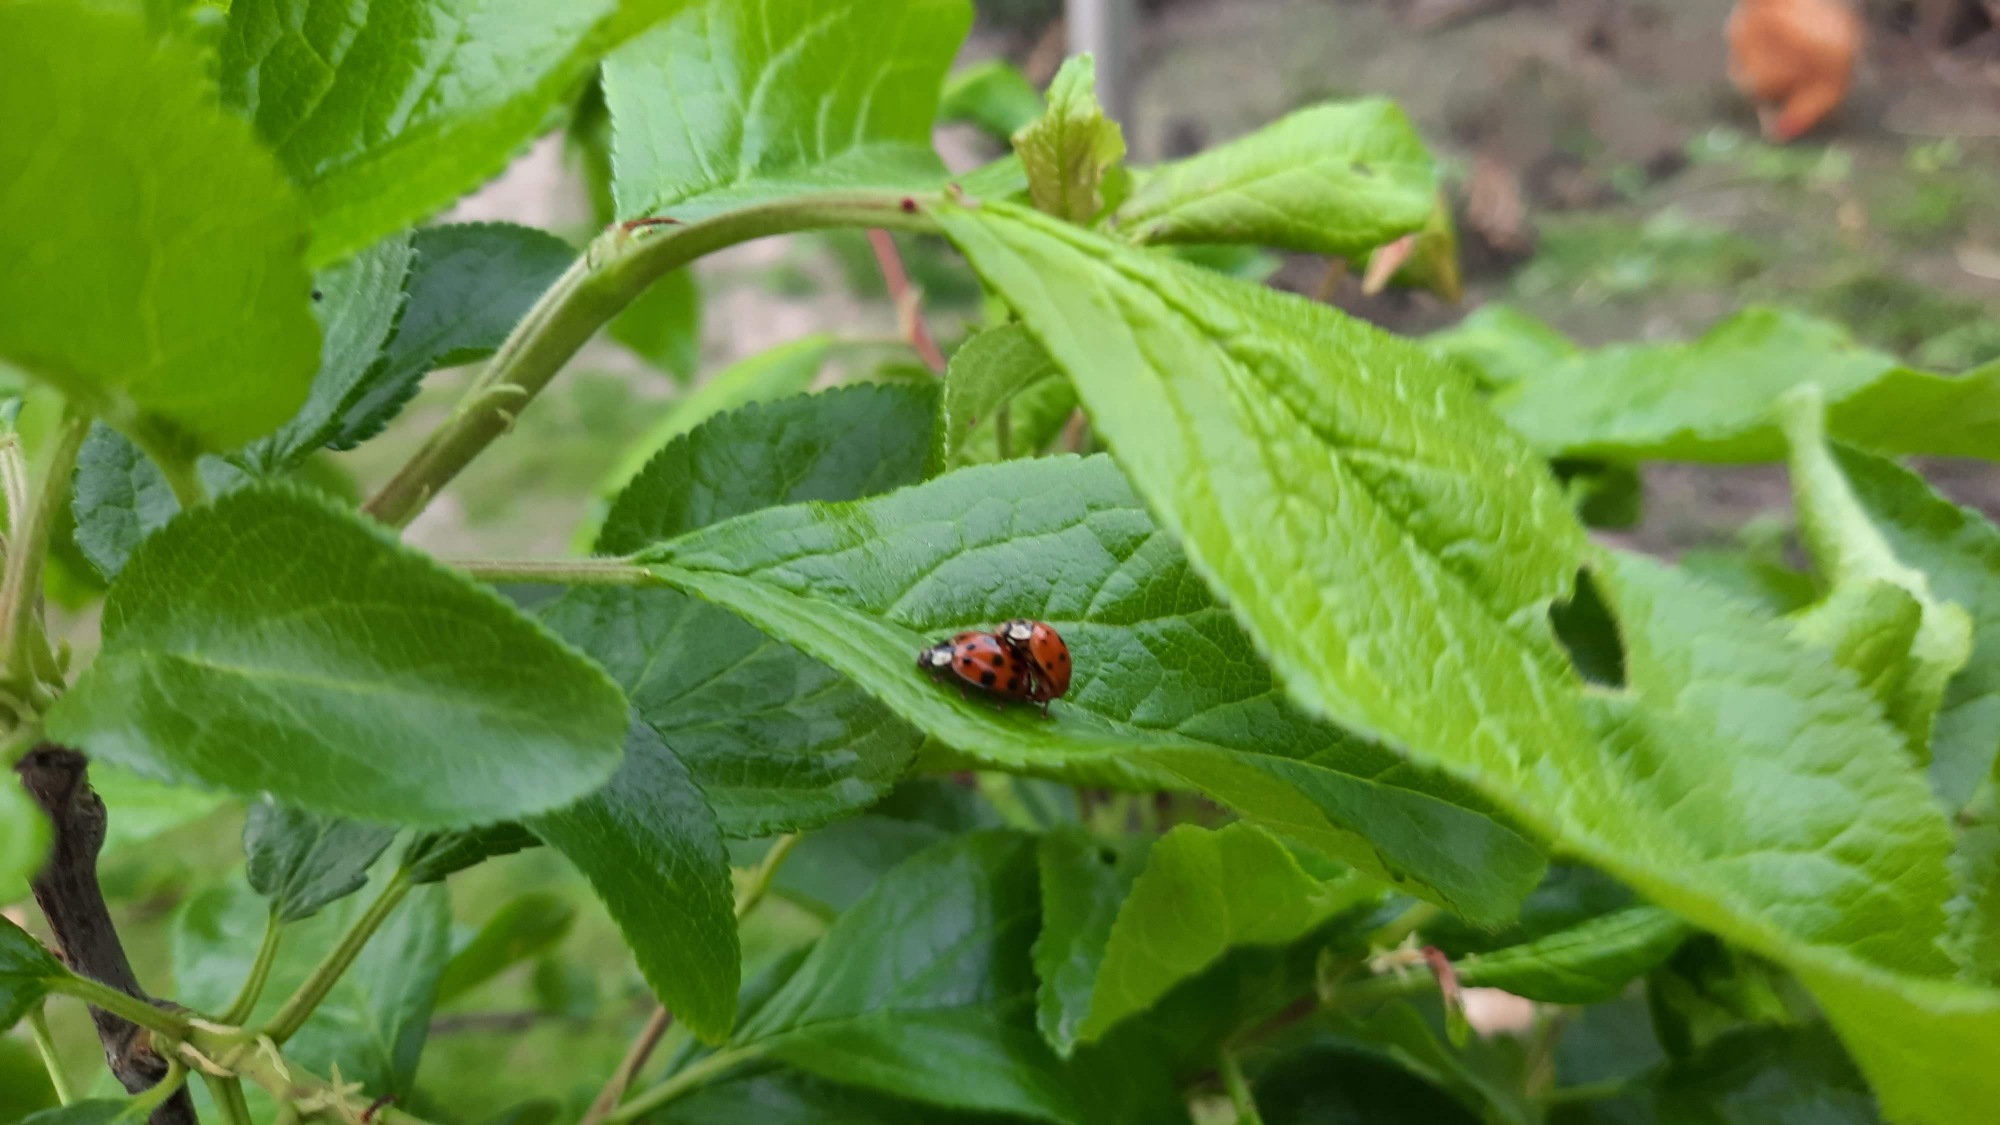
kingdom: Animalia
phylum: Arthropoda
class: Insecta
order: Coleoptera
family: Coccinellidae
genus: Harmonia
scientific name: Harmonia axyridis
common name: Harlekinmariehøne
